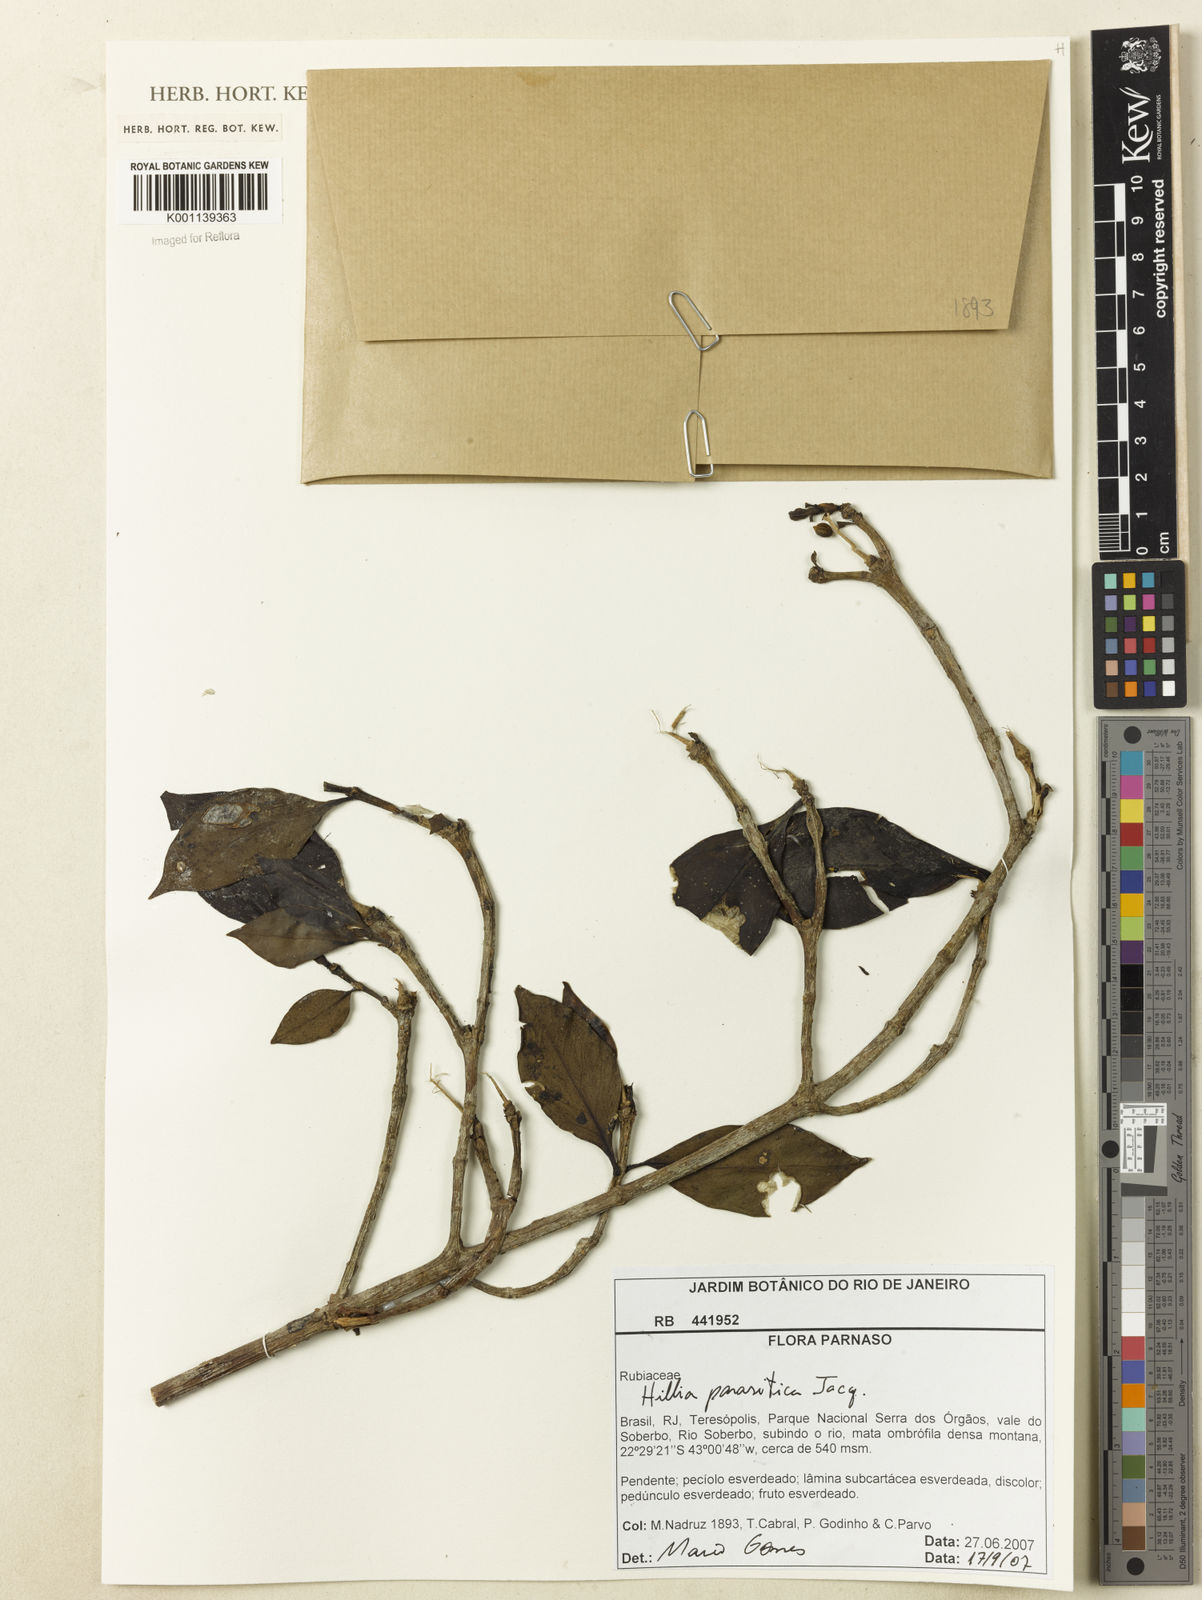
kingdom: Plantae
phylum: Tracheophyta
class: Magnoliopsida
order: Gentianales
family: Rubiaceae
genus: Hillia
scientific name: Hillia parasitica
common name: Morning star
